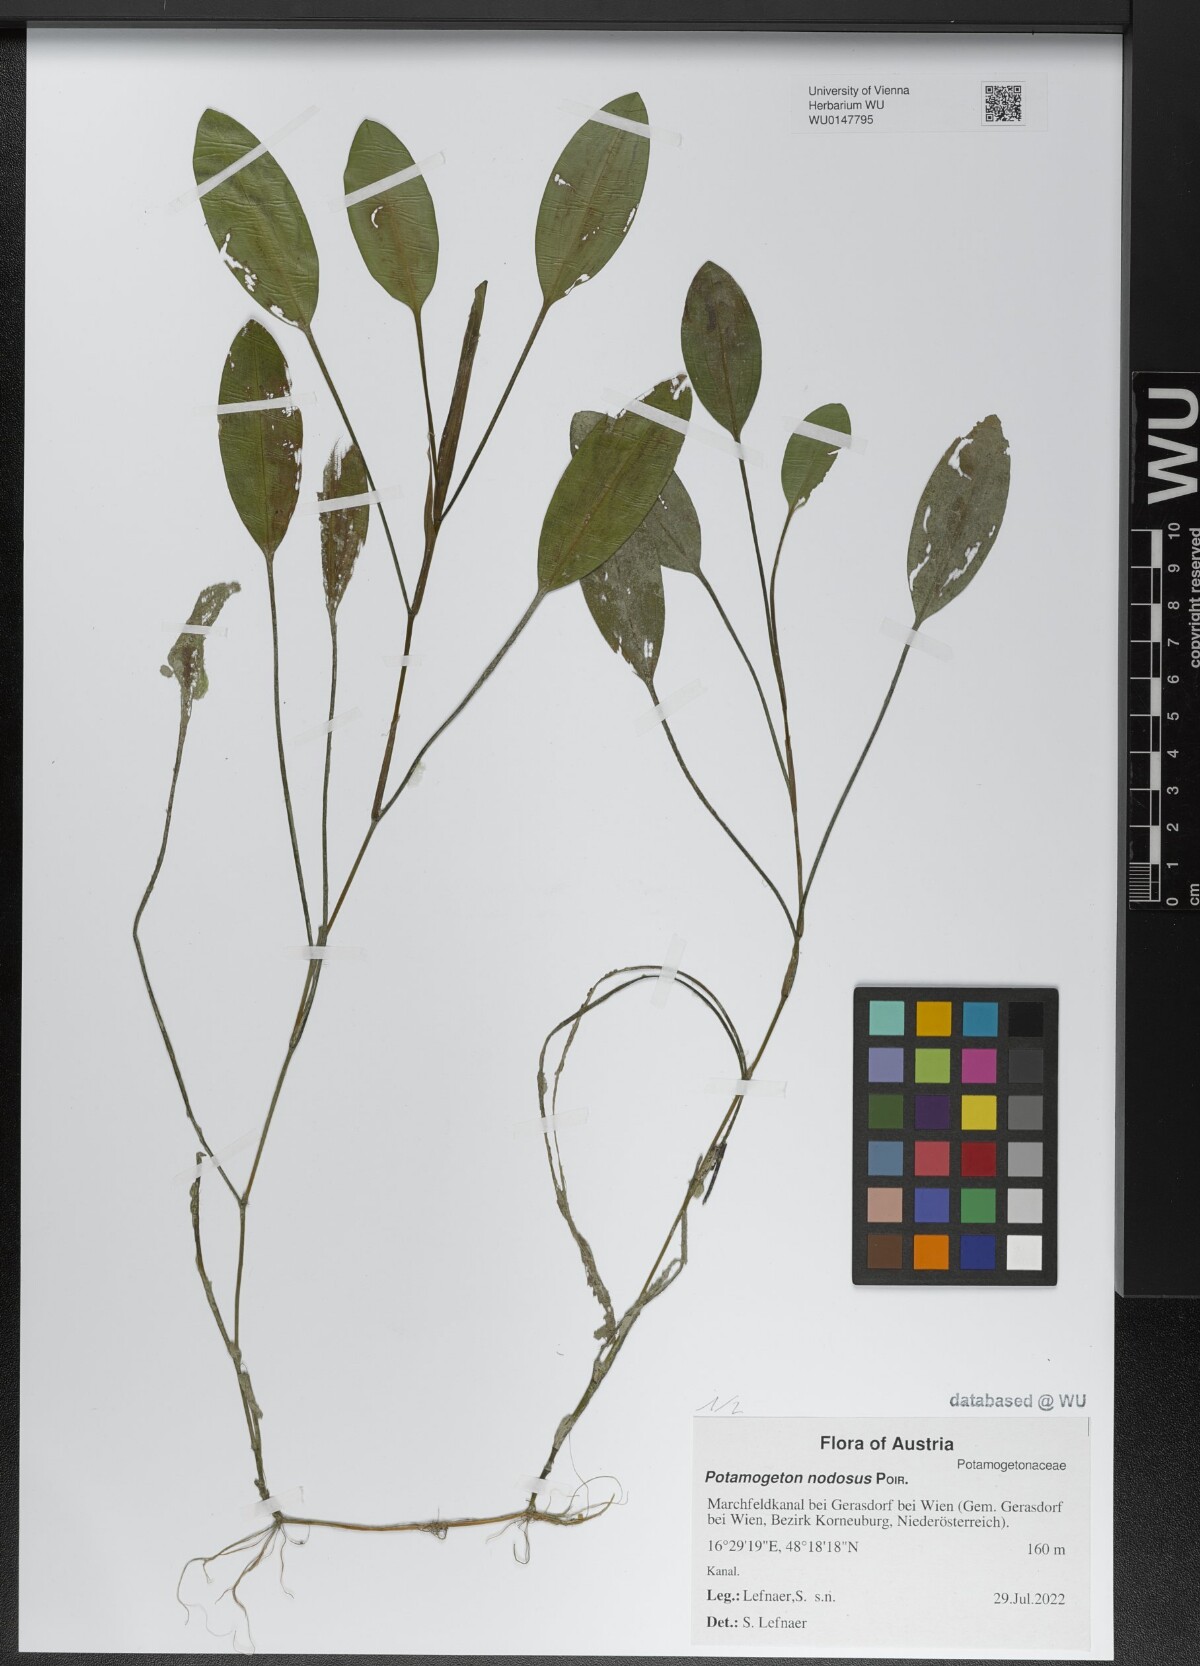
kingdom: Plantae
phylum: Tracheophyta
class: Liliopsida
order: Alismatales
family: Potamogetonaceae
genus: Potamogeton
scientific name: Potamogeton nodosus
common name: Loddon pondweed
